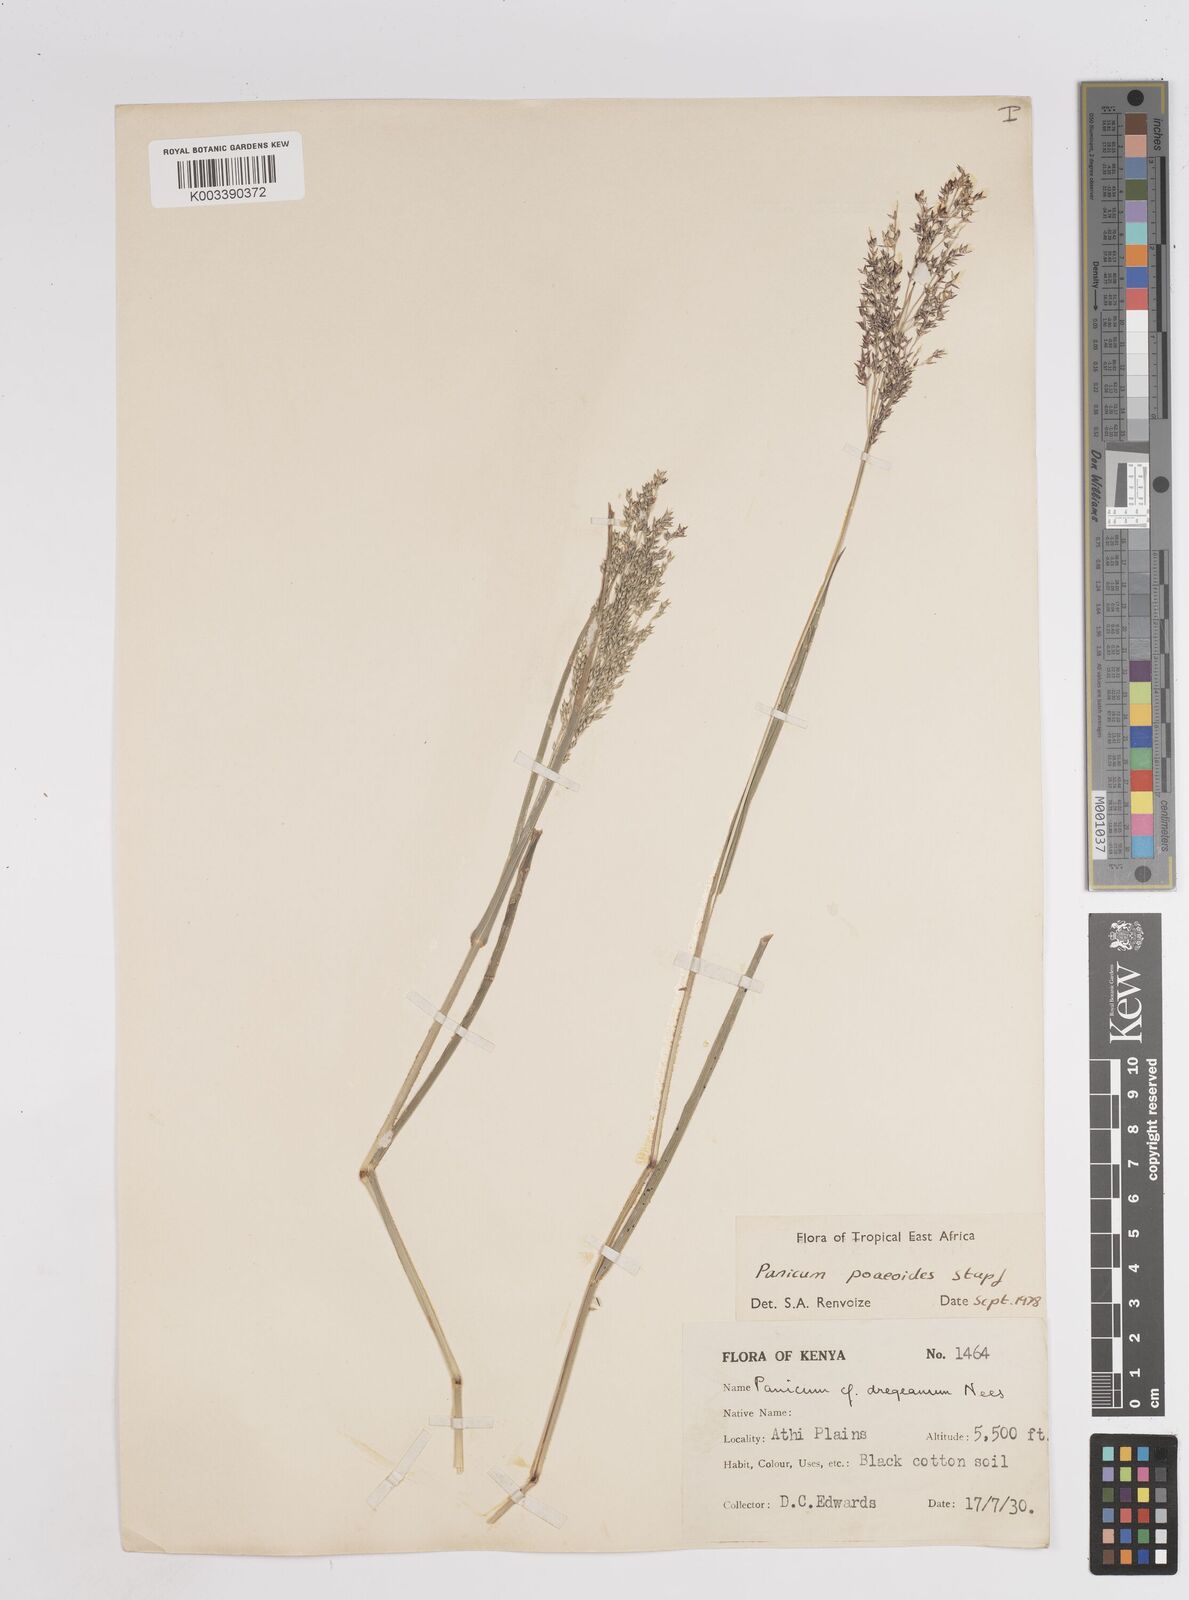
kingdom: Plantae
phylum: Tracheophyta
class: Liliopsida
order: Poales
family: Poaceae
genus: Panicum
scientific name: Panicum
